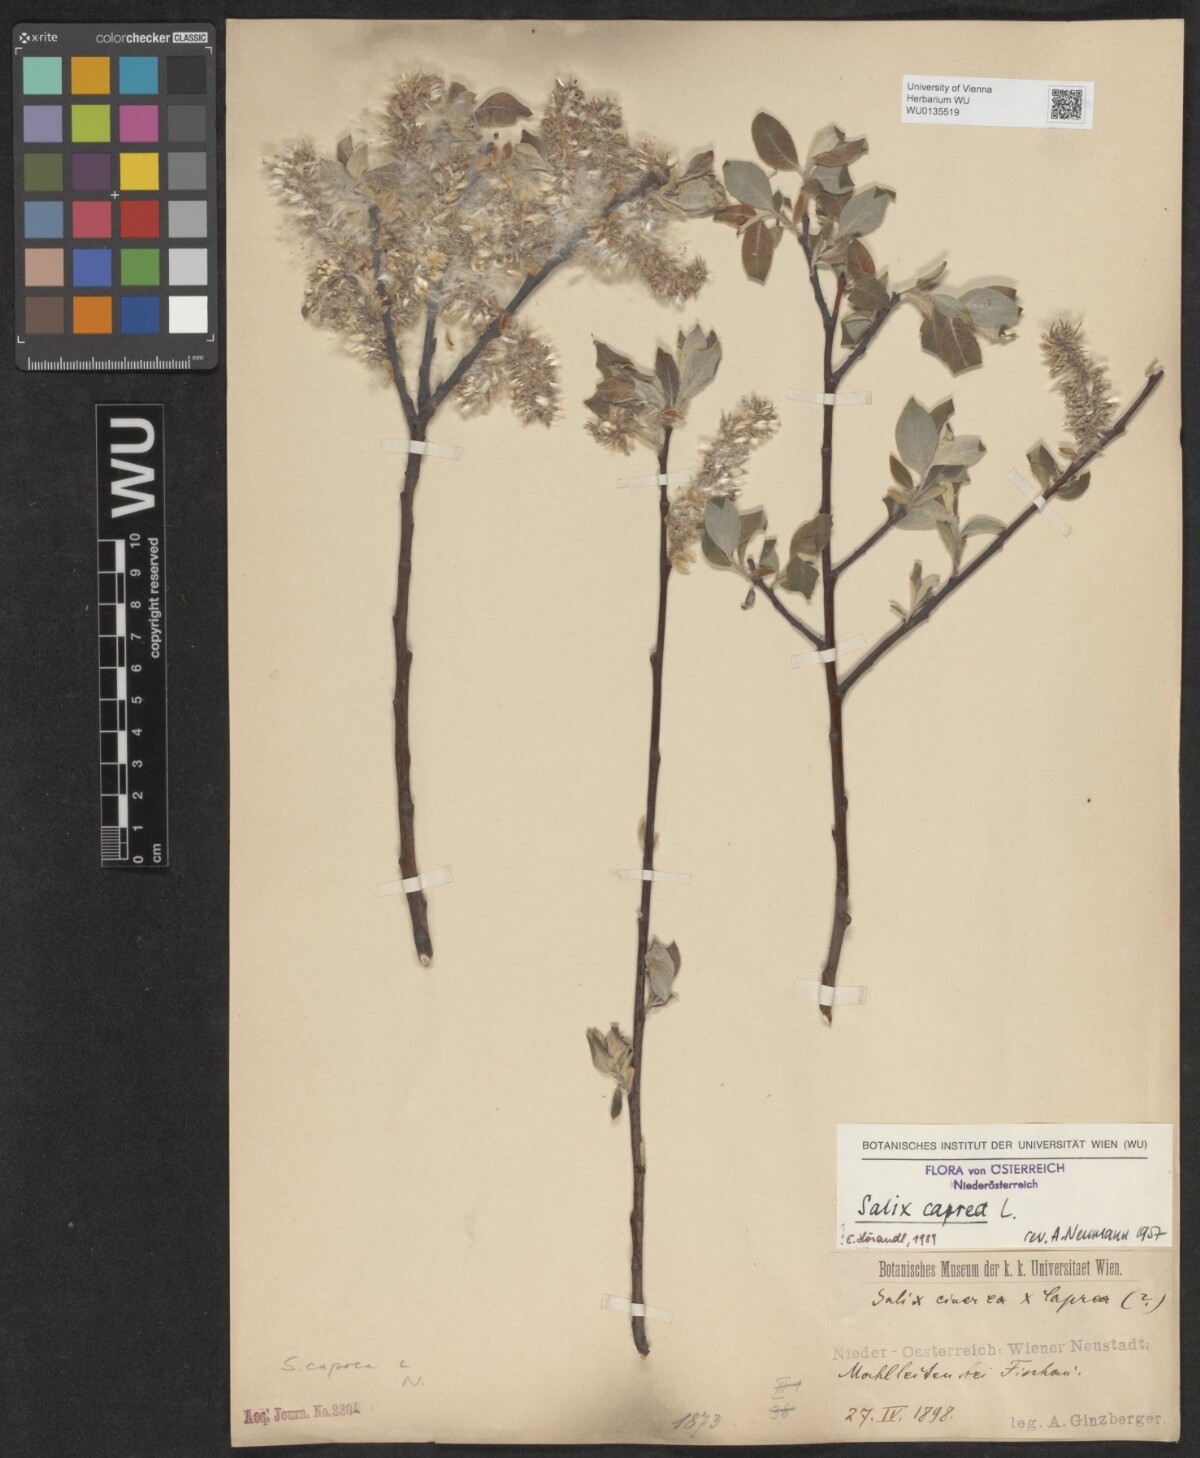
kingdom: Plantae
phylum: Tracheophyta
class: Magnoliopsida
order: Malpighiales
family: Salicaceae
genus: Salix
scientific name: Salix caprea
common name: Goat willow
